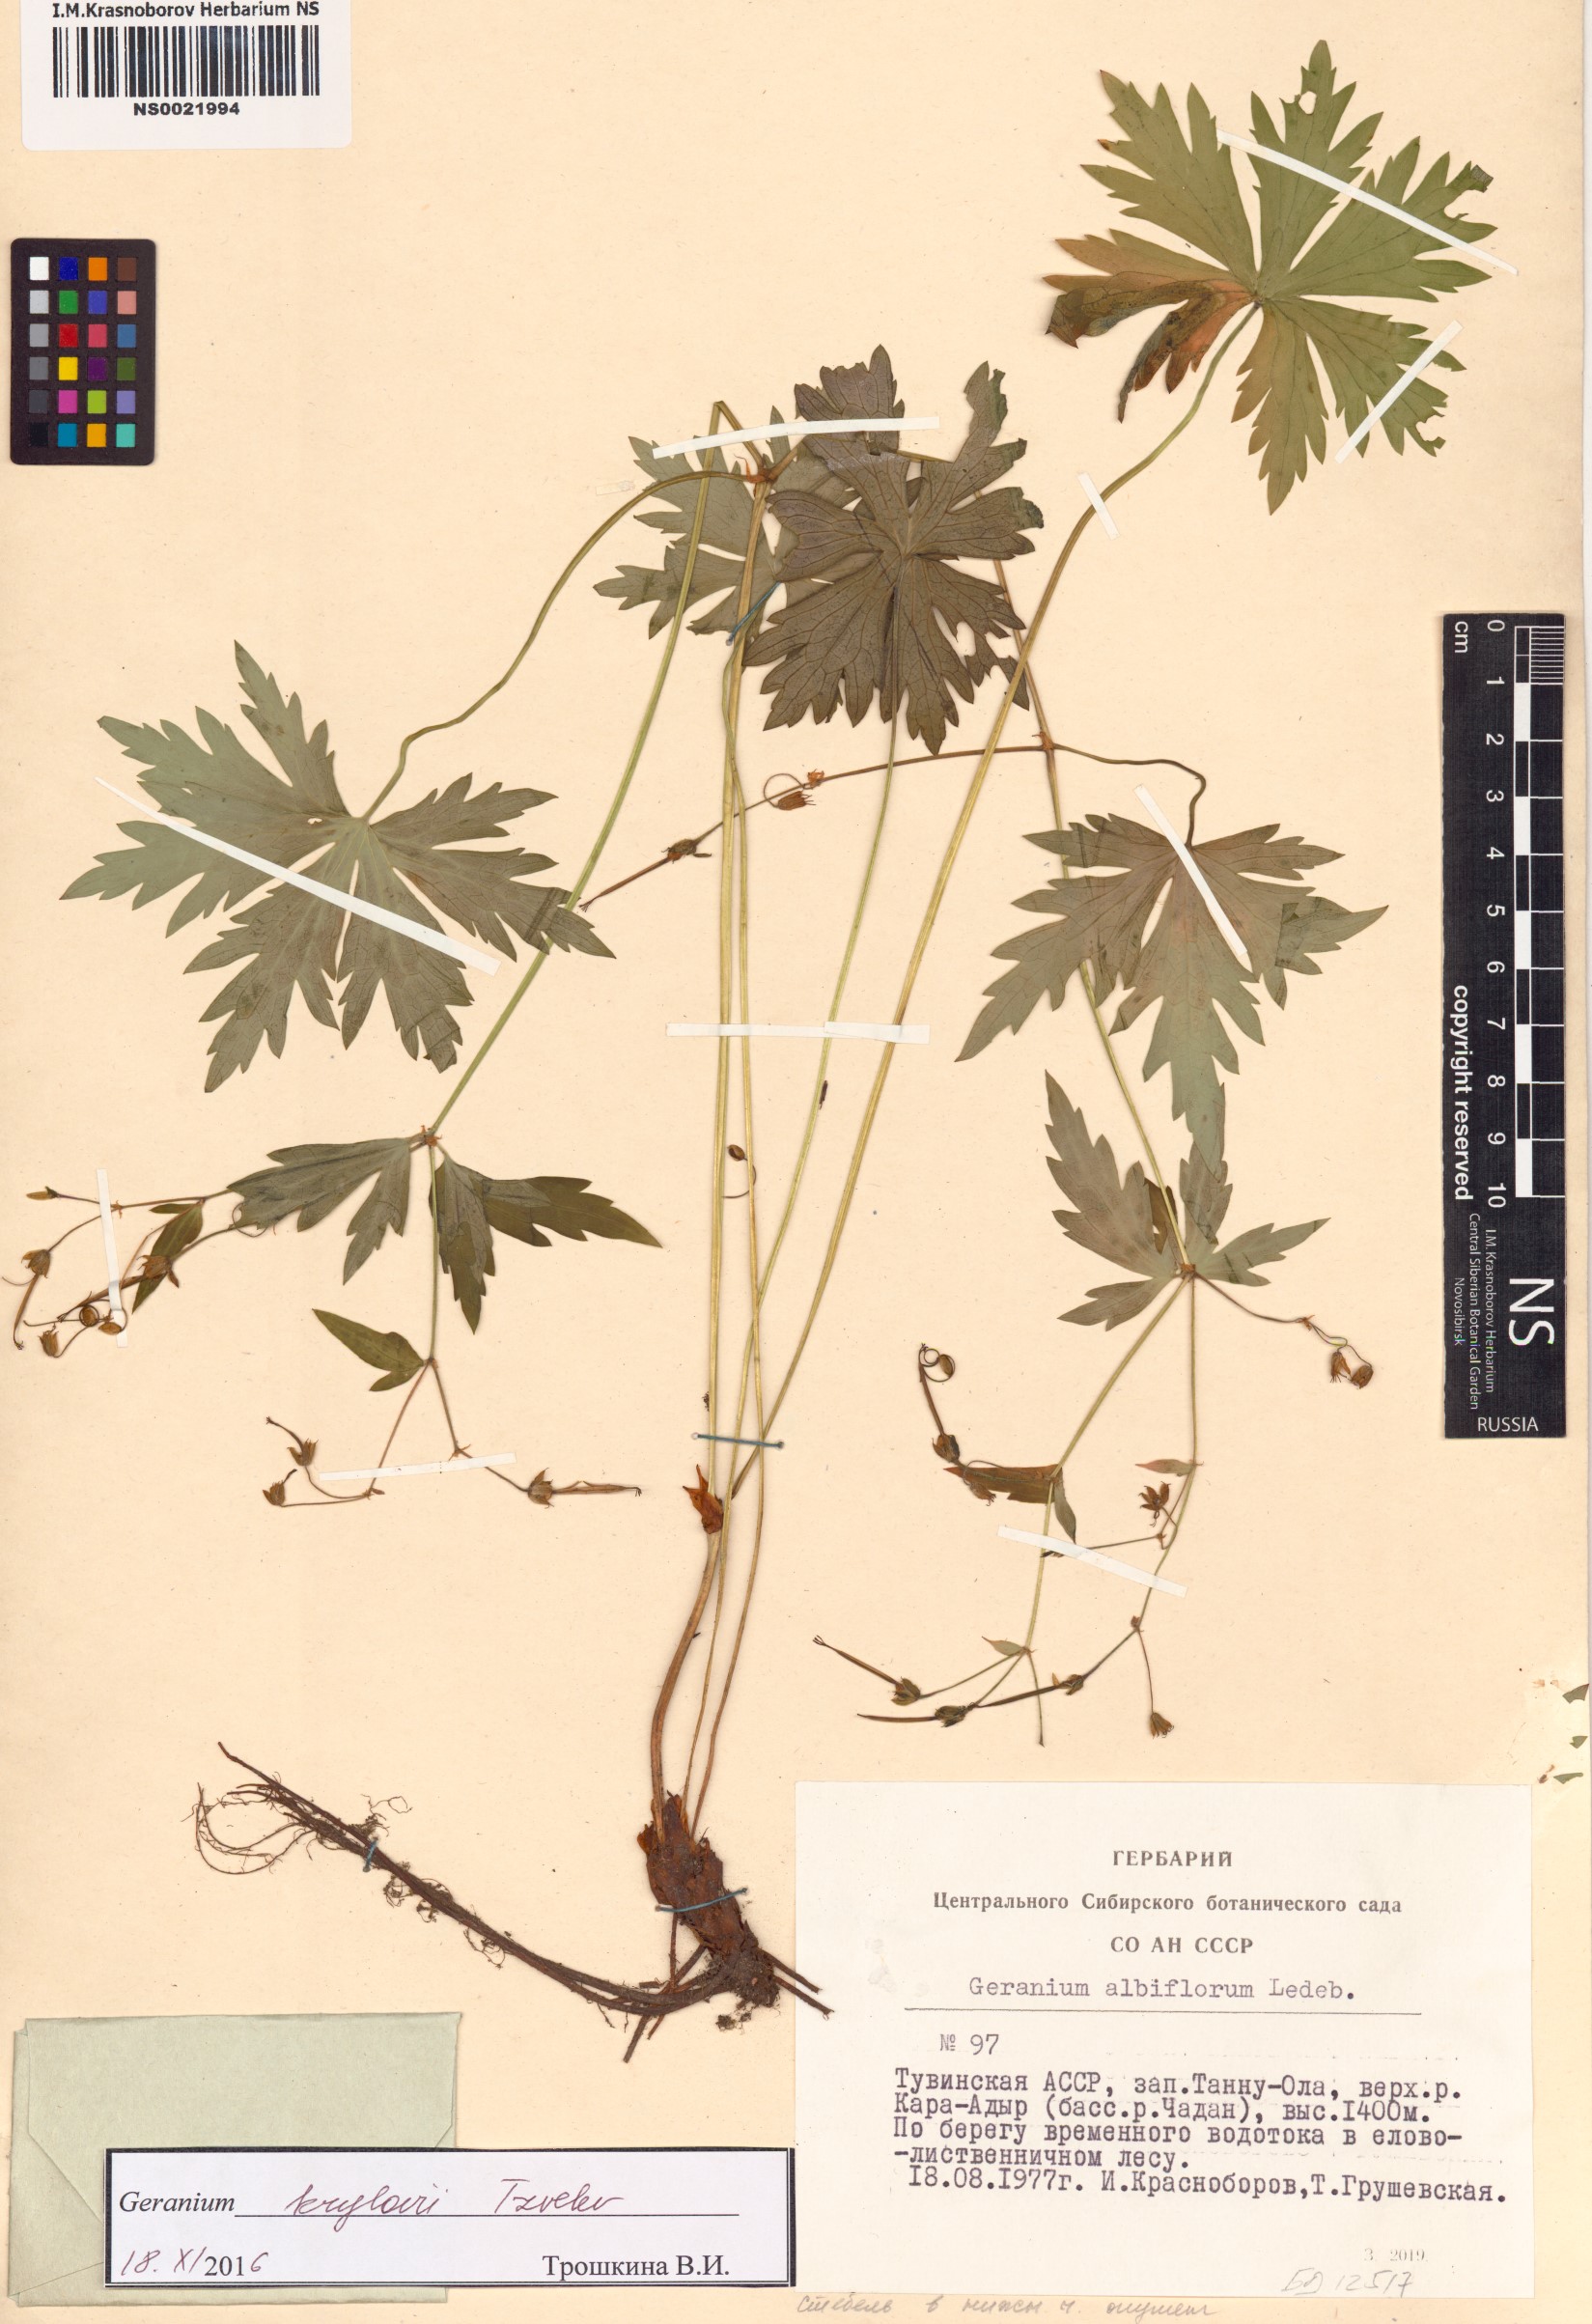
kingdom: Plantae
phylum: Tracheophyta
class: Magnoliopsida
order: Geraniales
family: Geraniaceae
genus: Geranium
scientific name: Geranium sylvaticum
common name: Wood crane's-bill
